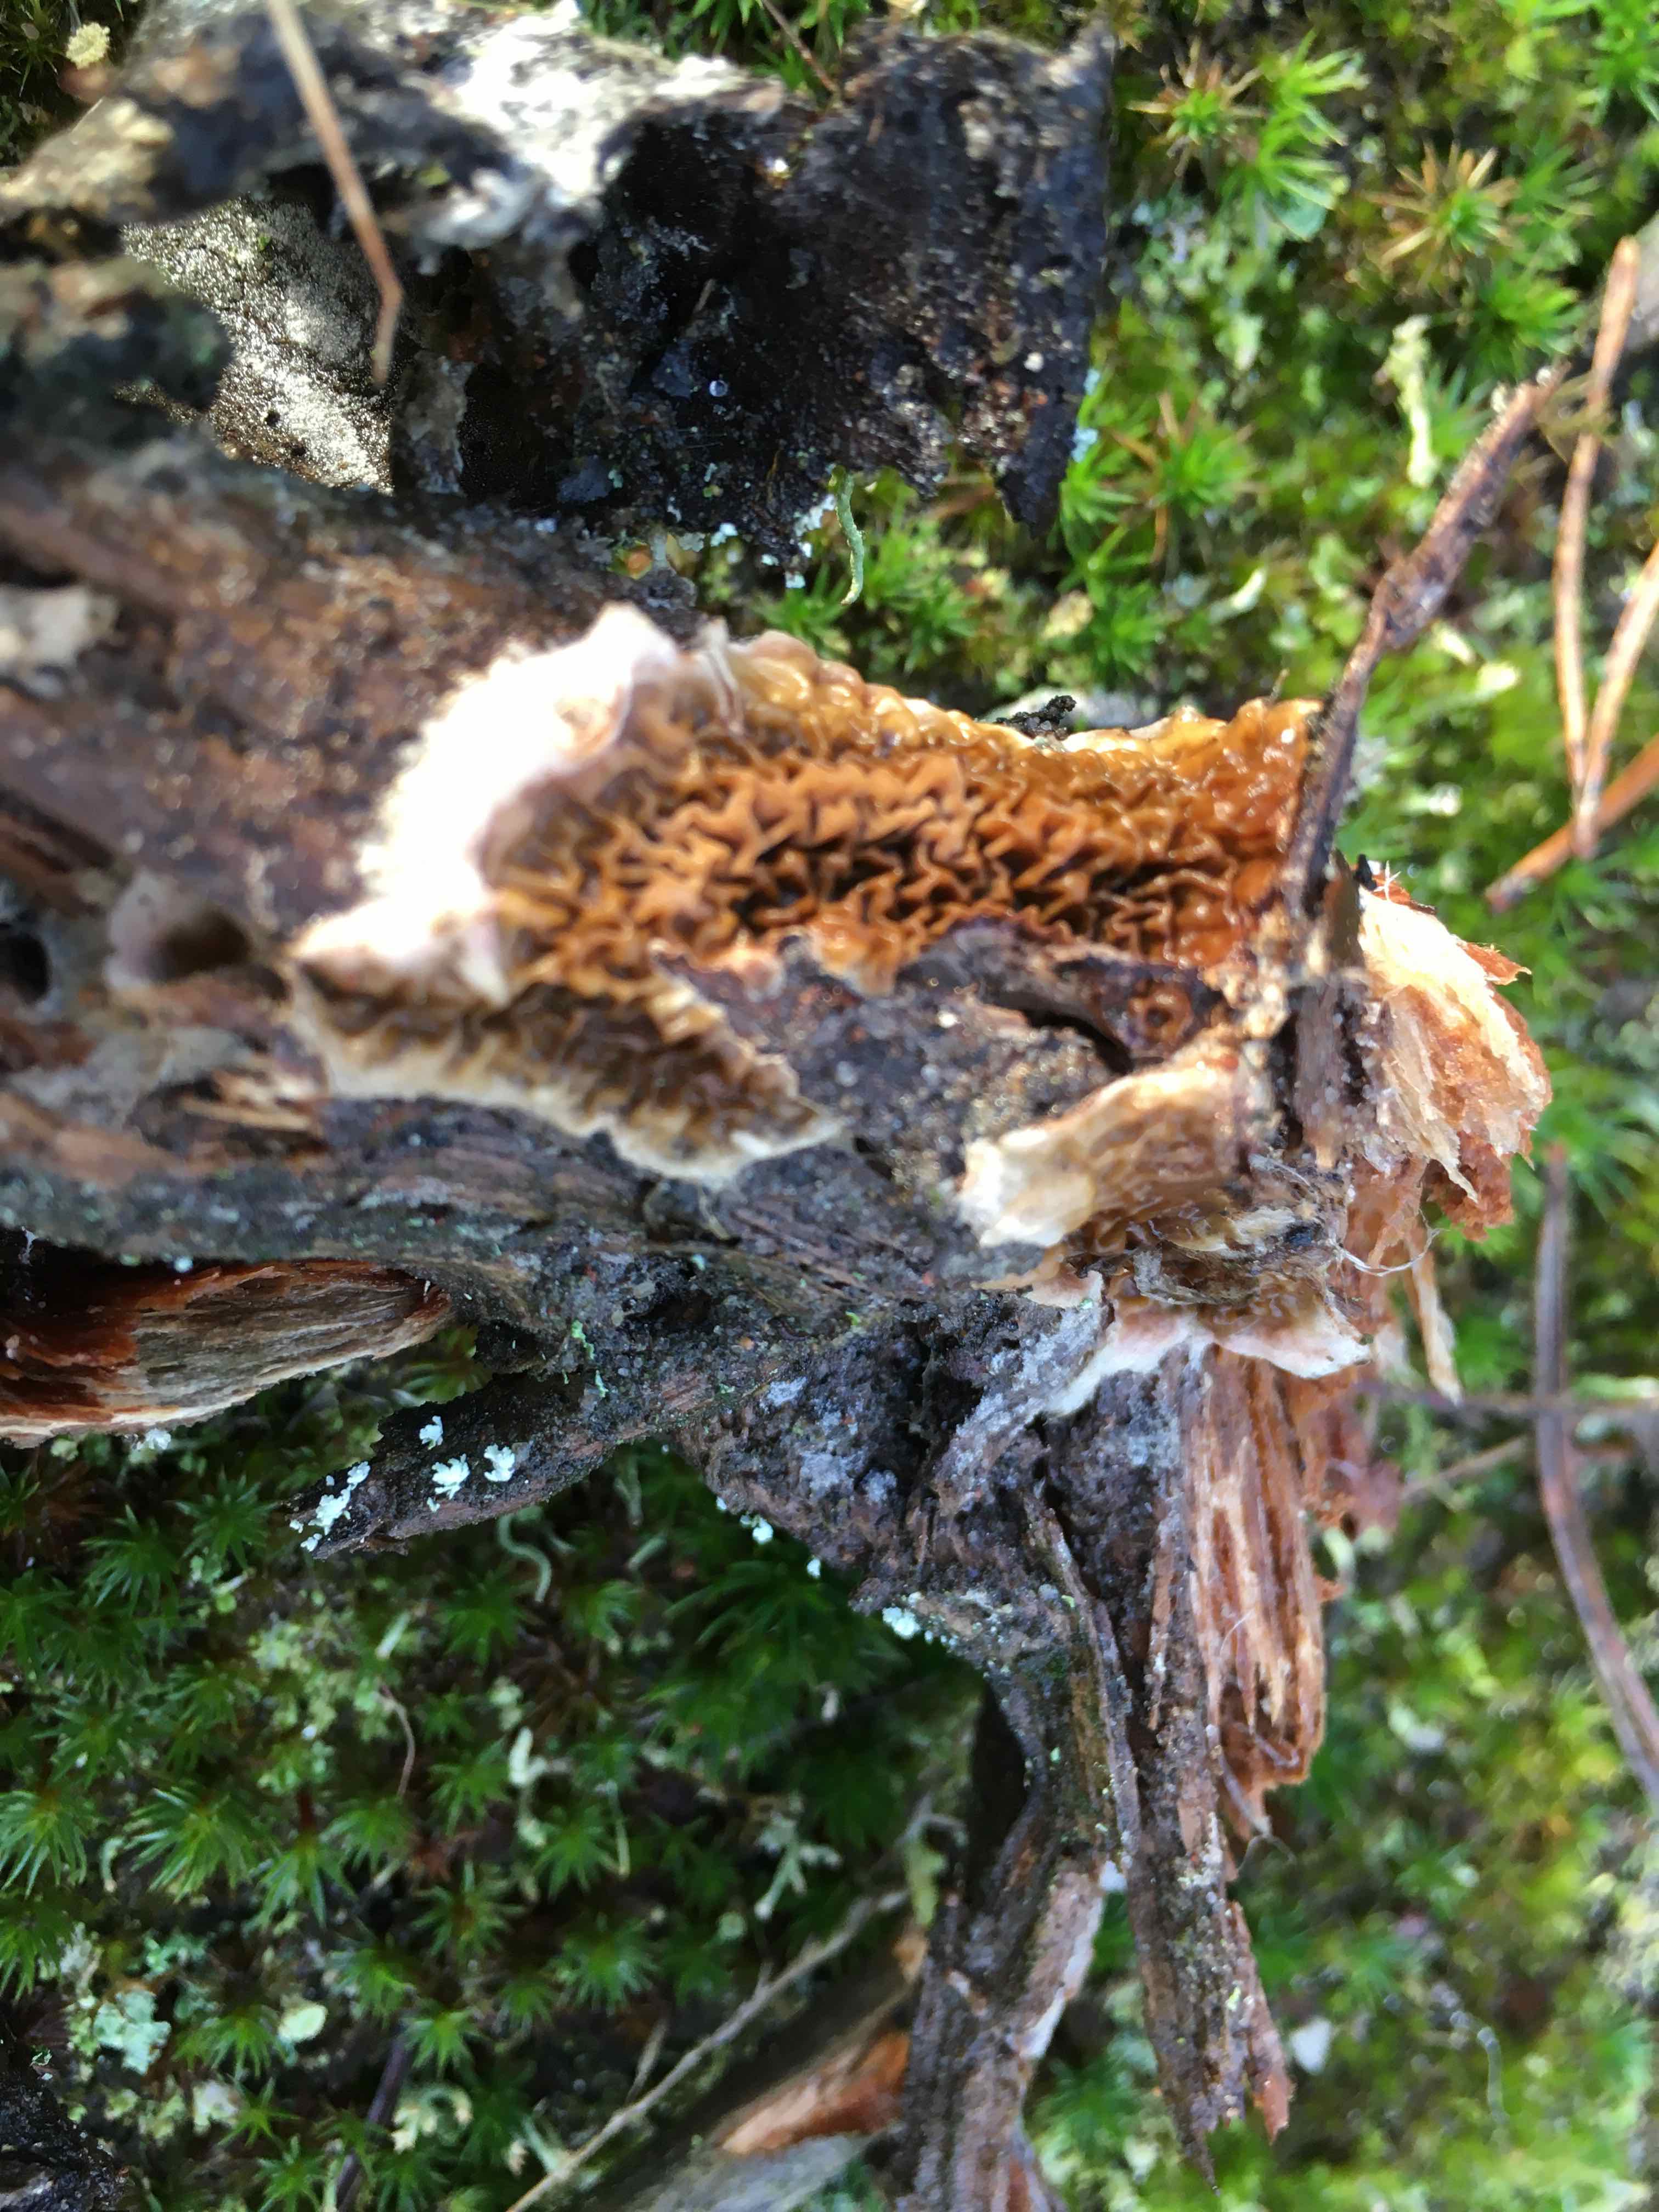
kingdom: Fungi
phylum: Basidiomycota
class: Agaricomycetes
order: Boletales
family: Serpulaceae
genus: Serpula
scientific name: Serpula himantioides
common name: tyndkødet hussvamp
